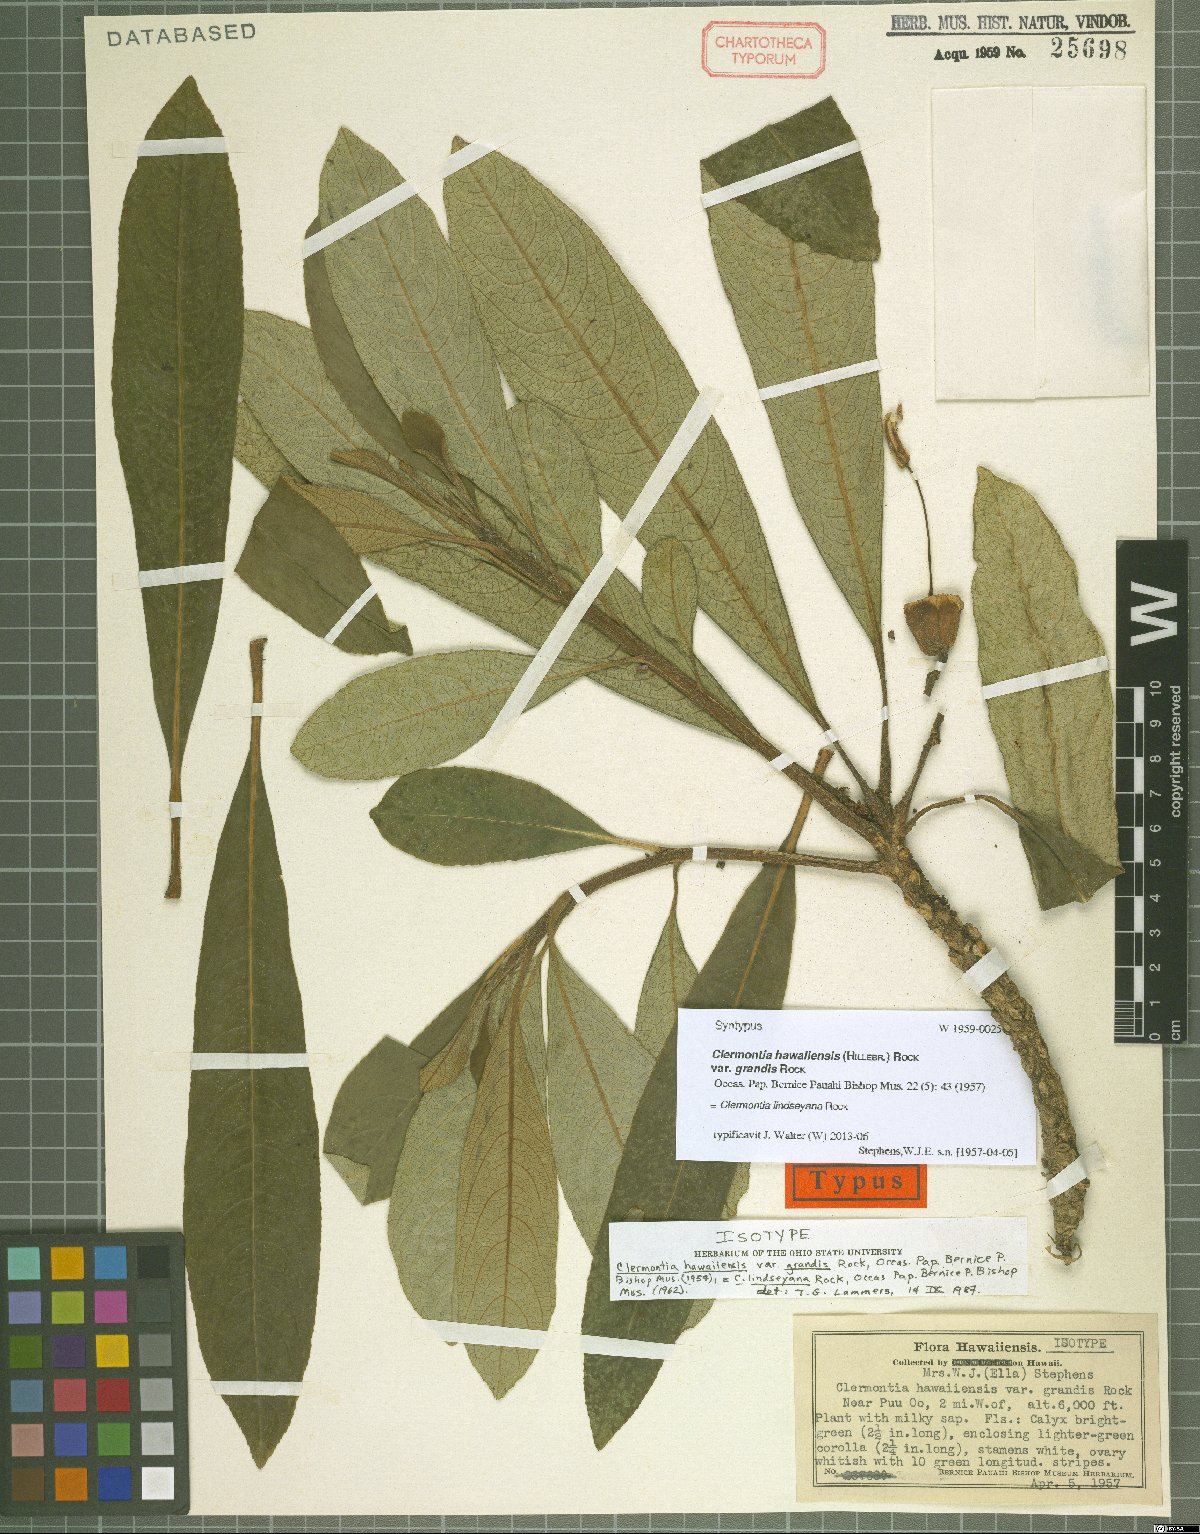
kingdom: Plantae
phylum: Tracheophyta
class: Magnoliopsida
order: Asterales
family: Campanulaceae
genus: Clermontia
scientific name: Clermontia lindseyana
